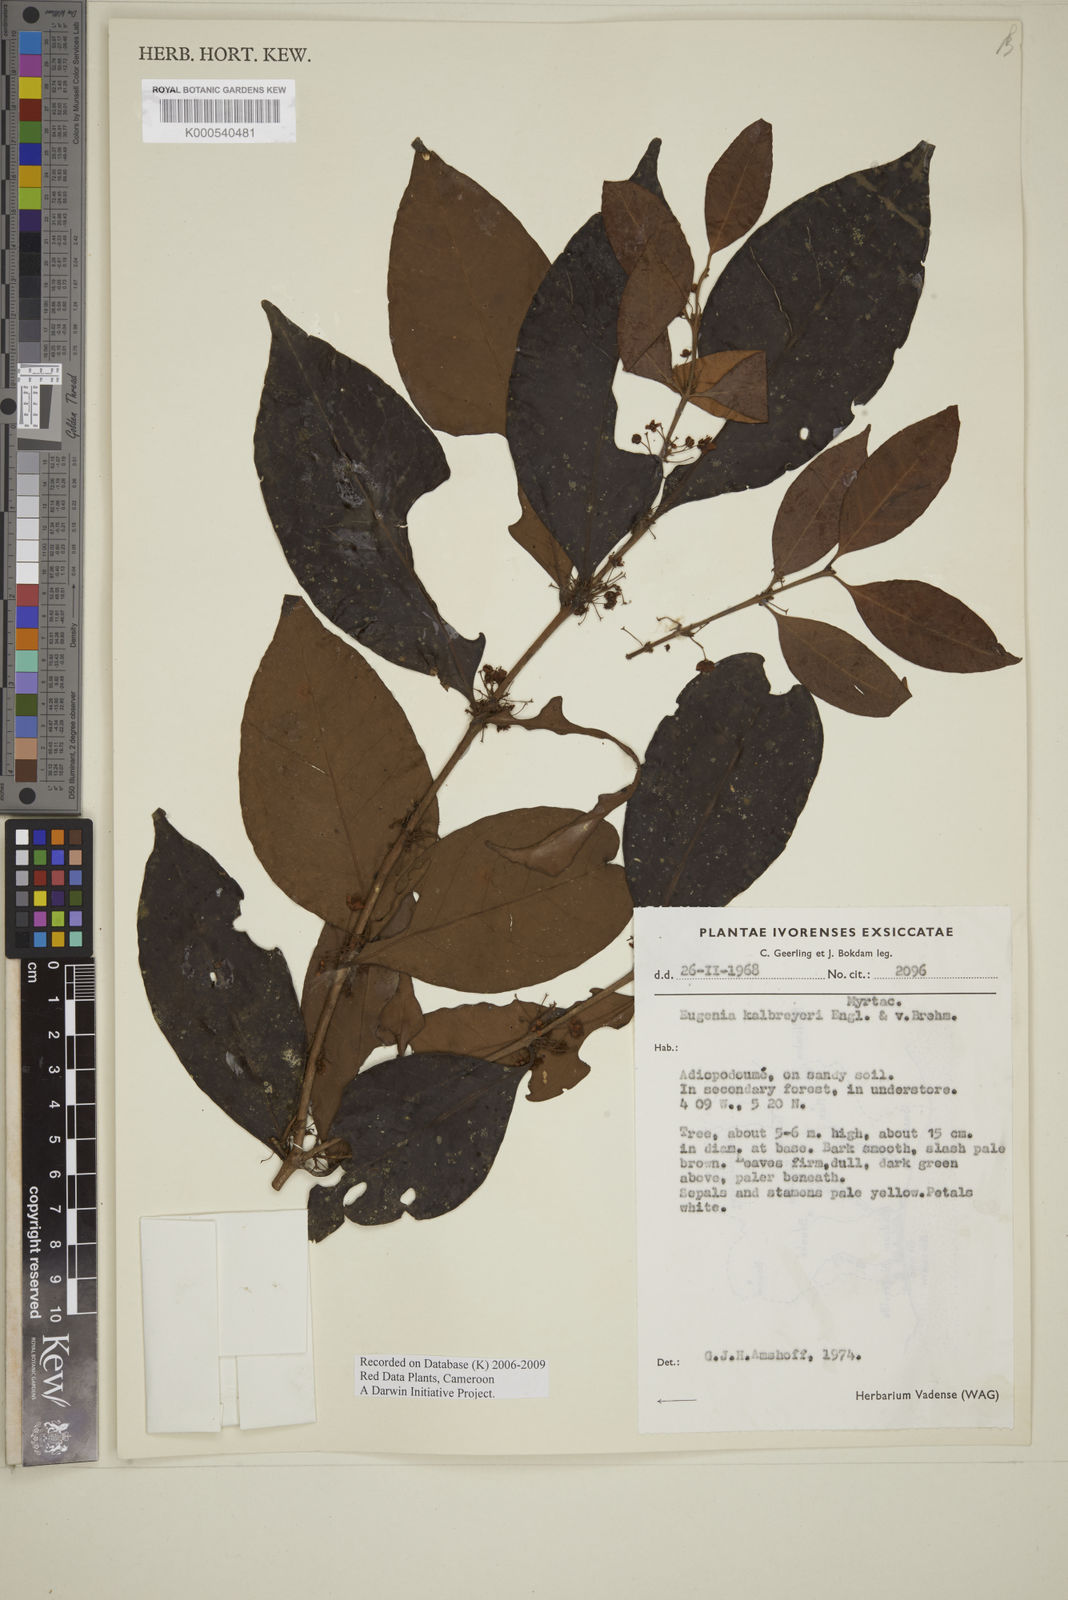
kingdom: Plantae
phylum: Tracheophyta
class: Magnoliopsida
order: Myrtales
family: Myrtaceae
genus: Eugenia
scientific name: Eugenia kalbreyeri
